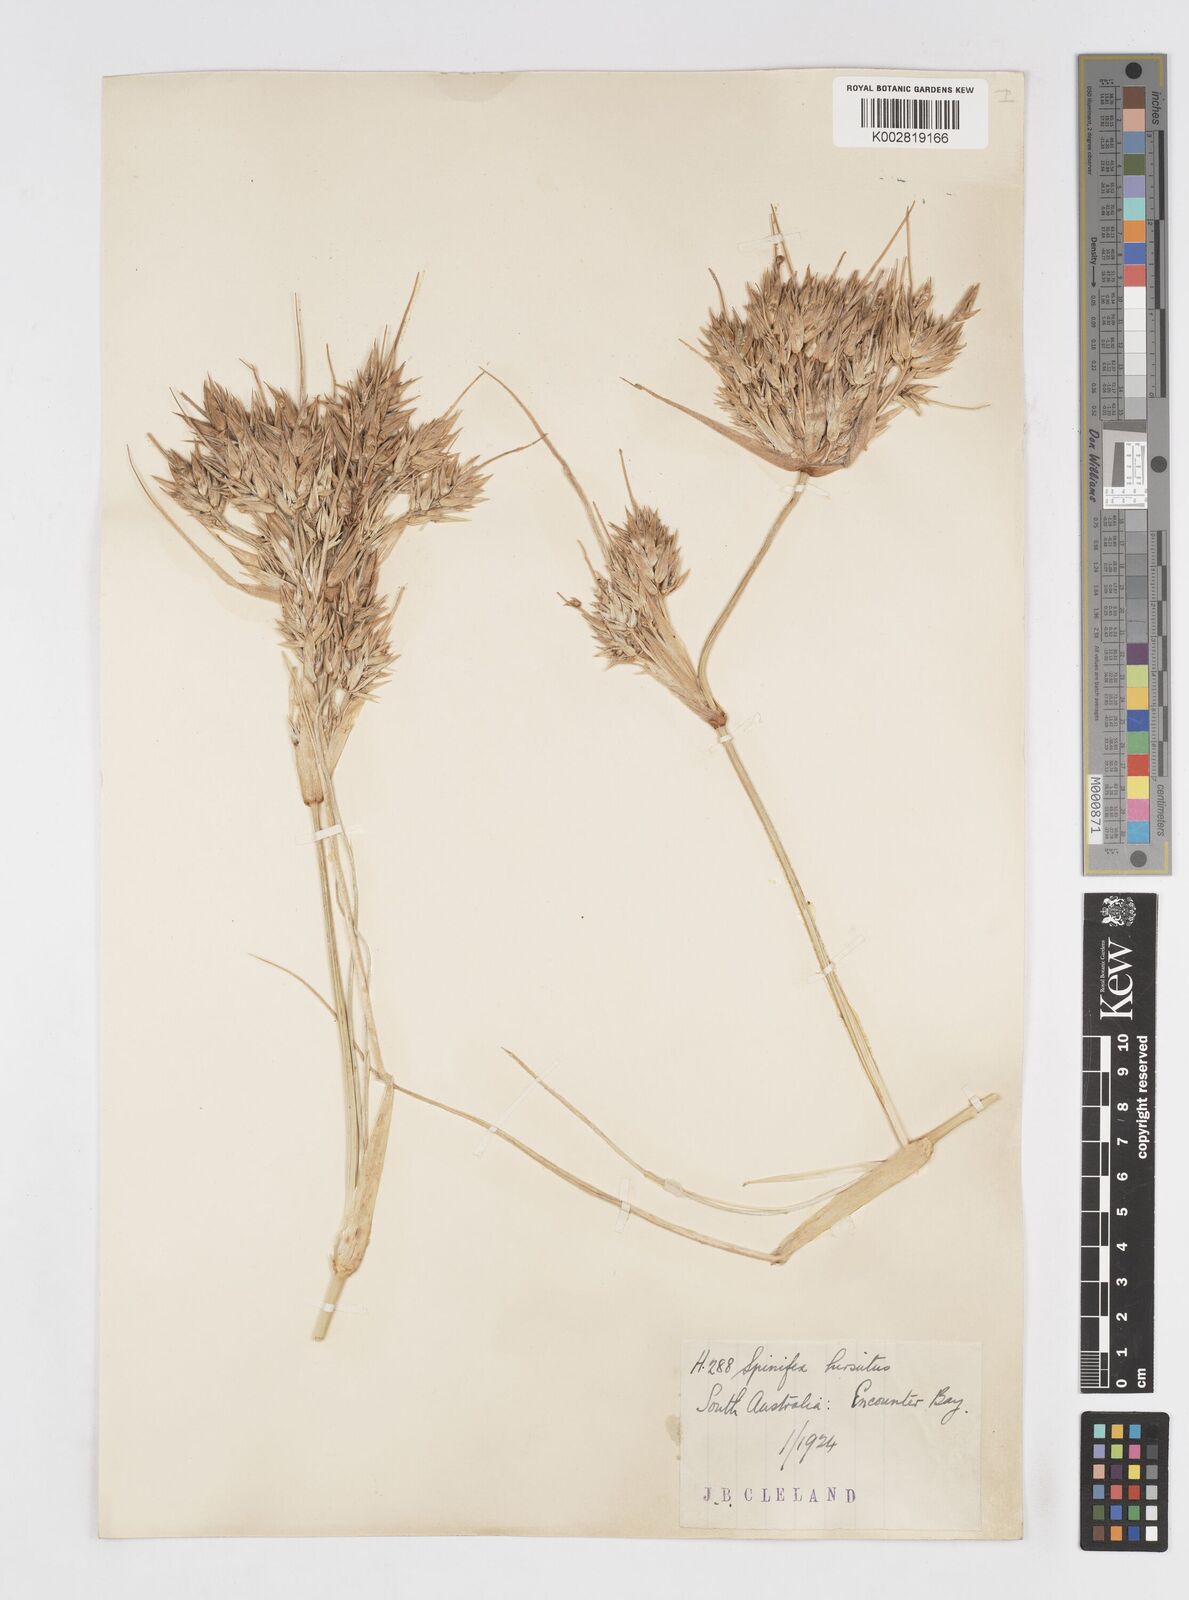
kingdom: Plantae
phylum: Tracheophyta
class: Liliopsida
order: Poales
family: Poaceae
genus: Spinifex
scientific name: Spinifex hirsutus
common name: Hairy spinifex
